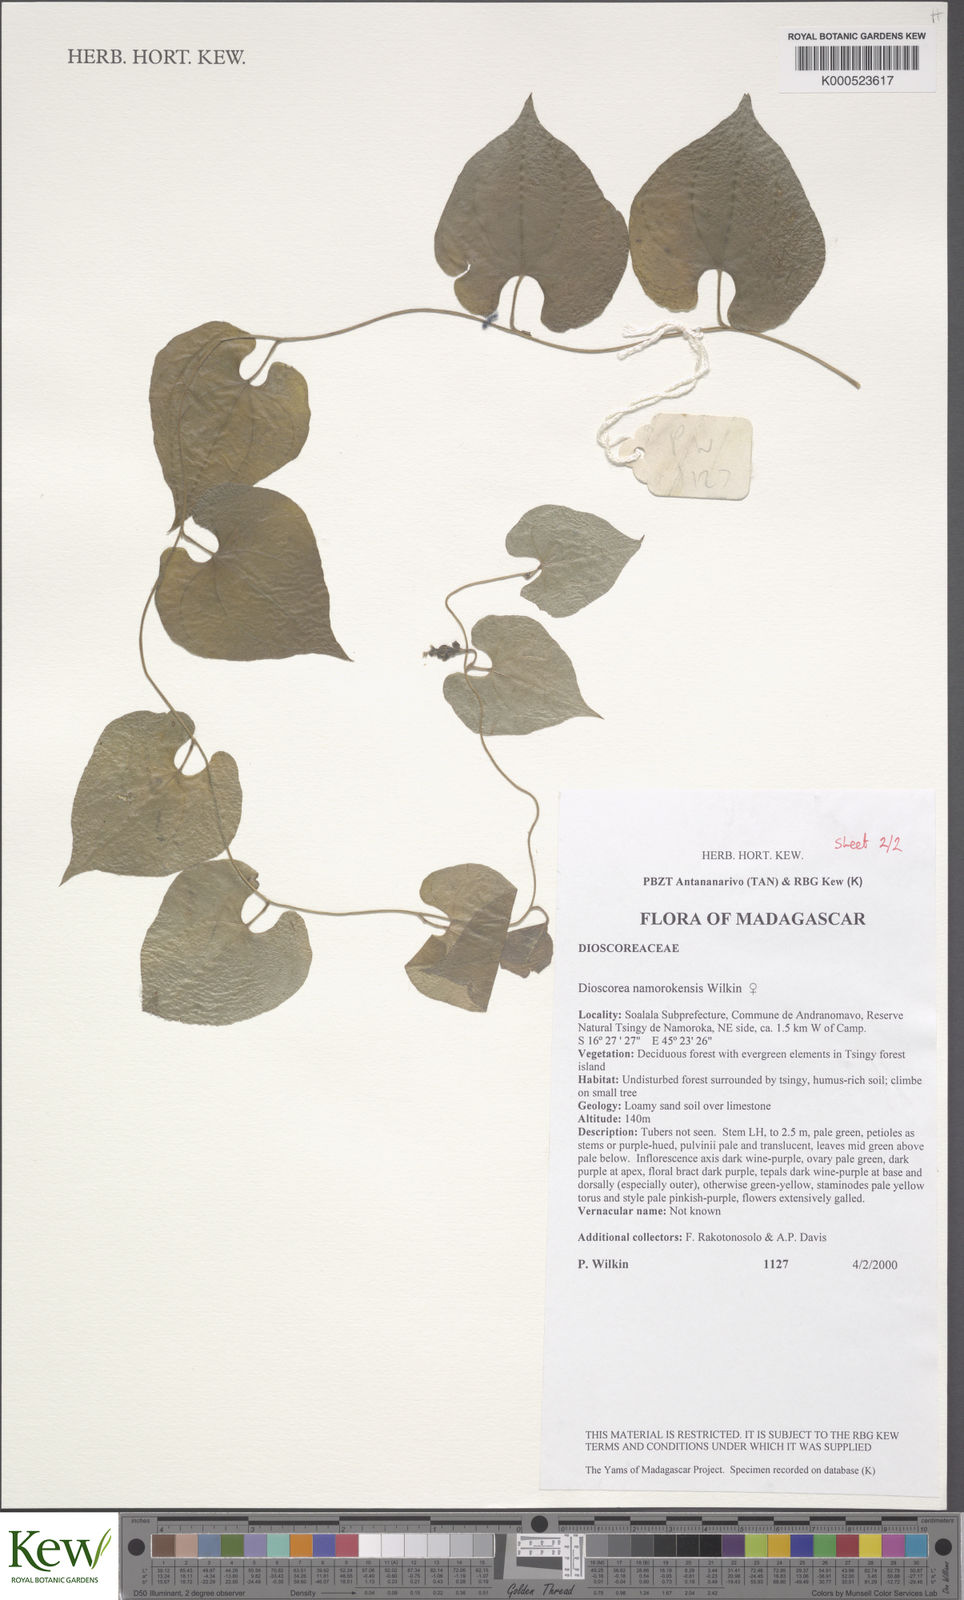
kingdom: Plantae
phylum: Tracheophyta
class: Liliopsida
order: Dioscoreales
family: Dioscoreaceae
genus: Dioscorea
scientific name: Dioscorea namorokensis
